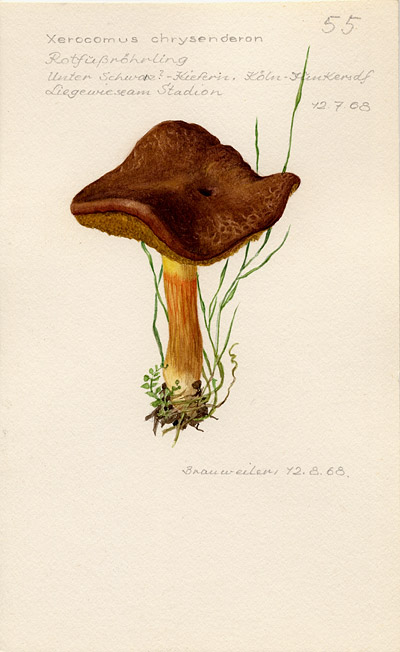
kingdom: Fungi
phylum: Basidiomycota
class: Agaricomycetes
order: Boletales
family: Boletaceae
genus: Xerocomellus
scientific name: Xerocomellus chrysenteron
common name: Red-cracking bolete
